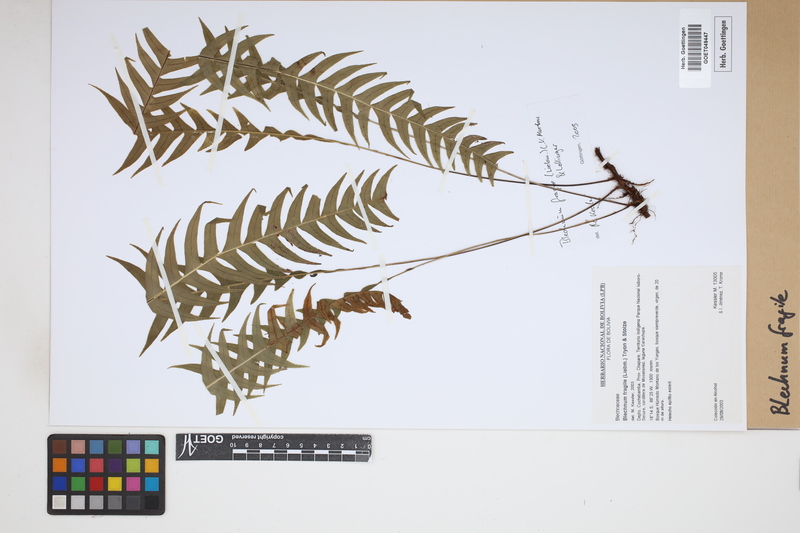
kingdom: Plantae
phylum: Tracheophyta
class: Polypodiopsida
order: Polypodiales
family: Blechnaceae
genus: Lomaridium
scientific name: Lomaridium fragile
